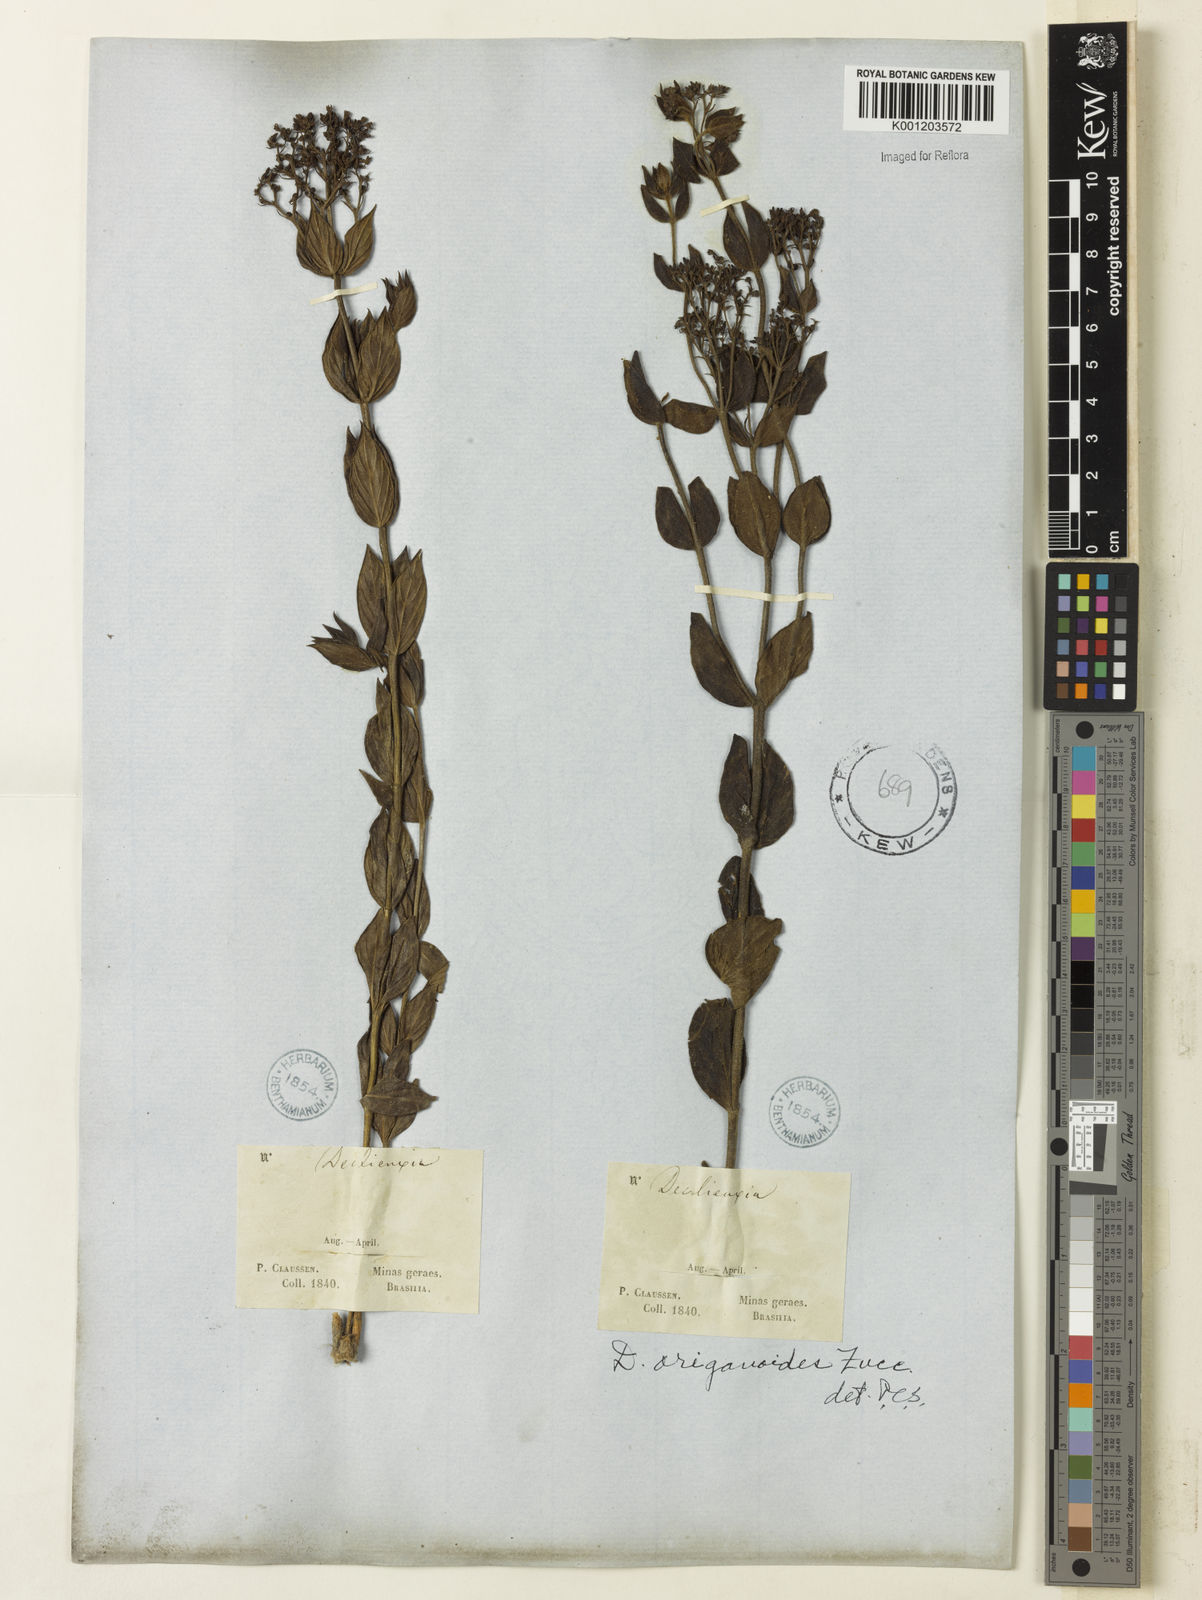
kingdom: Plantae
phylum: Tracheophyta
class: Magnoliopsida
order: Gentianales
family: Rubiaceae
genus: Declieuxia
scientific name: Declieuxia fruticosa
